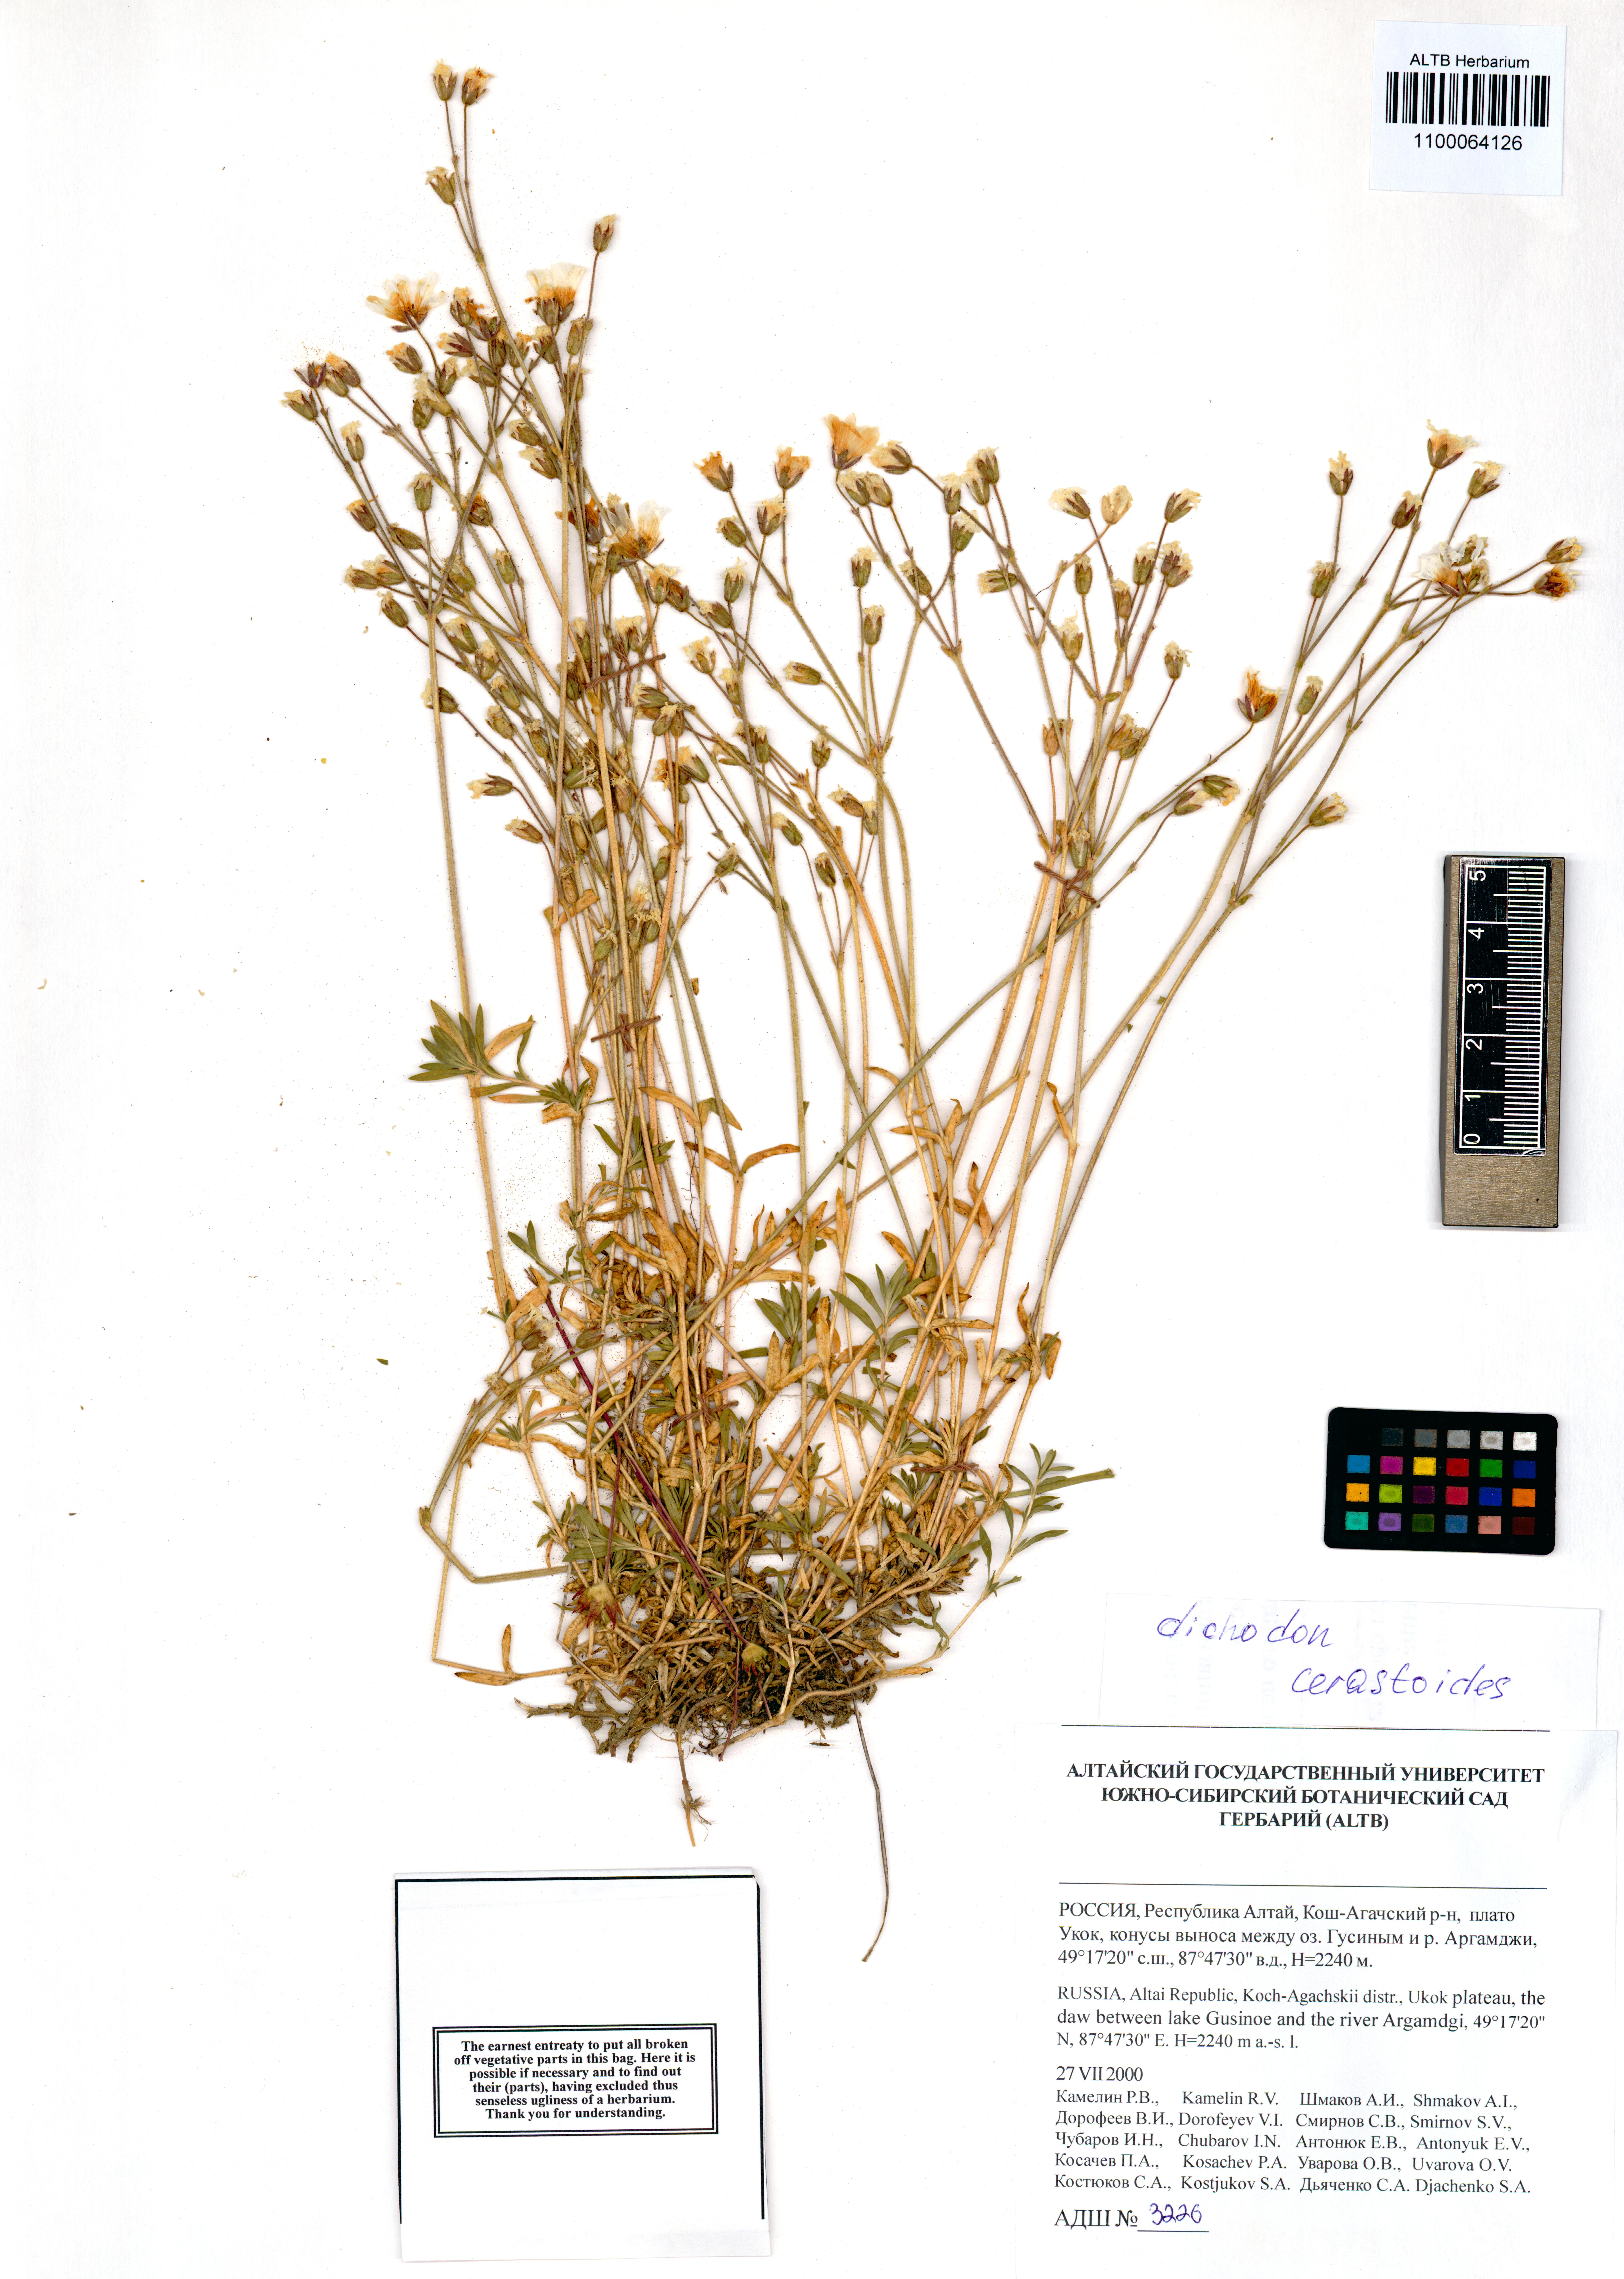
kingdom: Plantae
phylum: Tracheophyta
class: Magnoliopsida
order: Caryophyllales
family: Caryophyllaceae
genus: Dichodon
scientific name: Dichodon cerastoides
